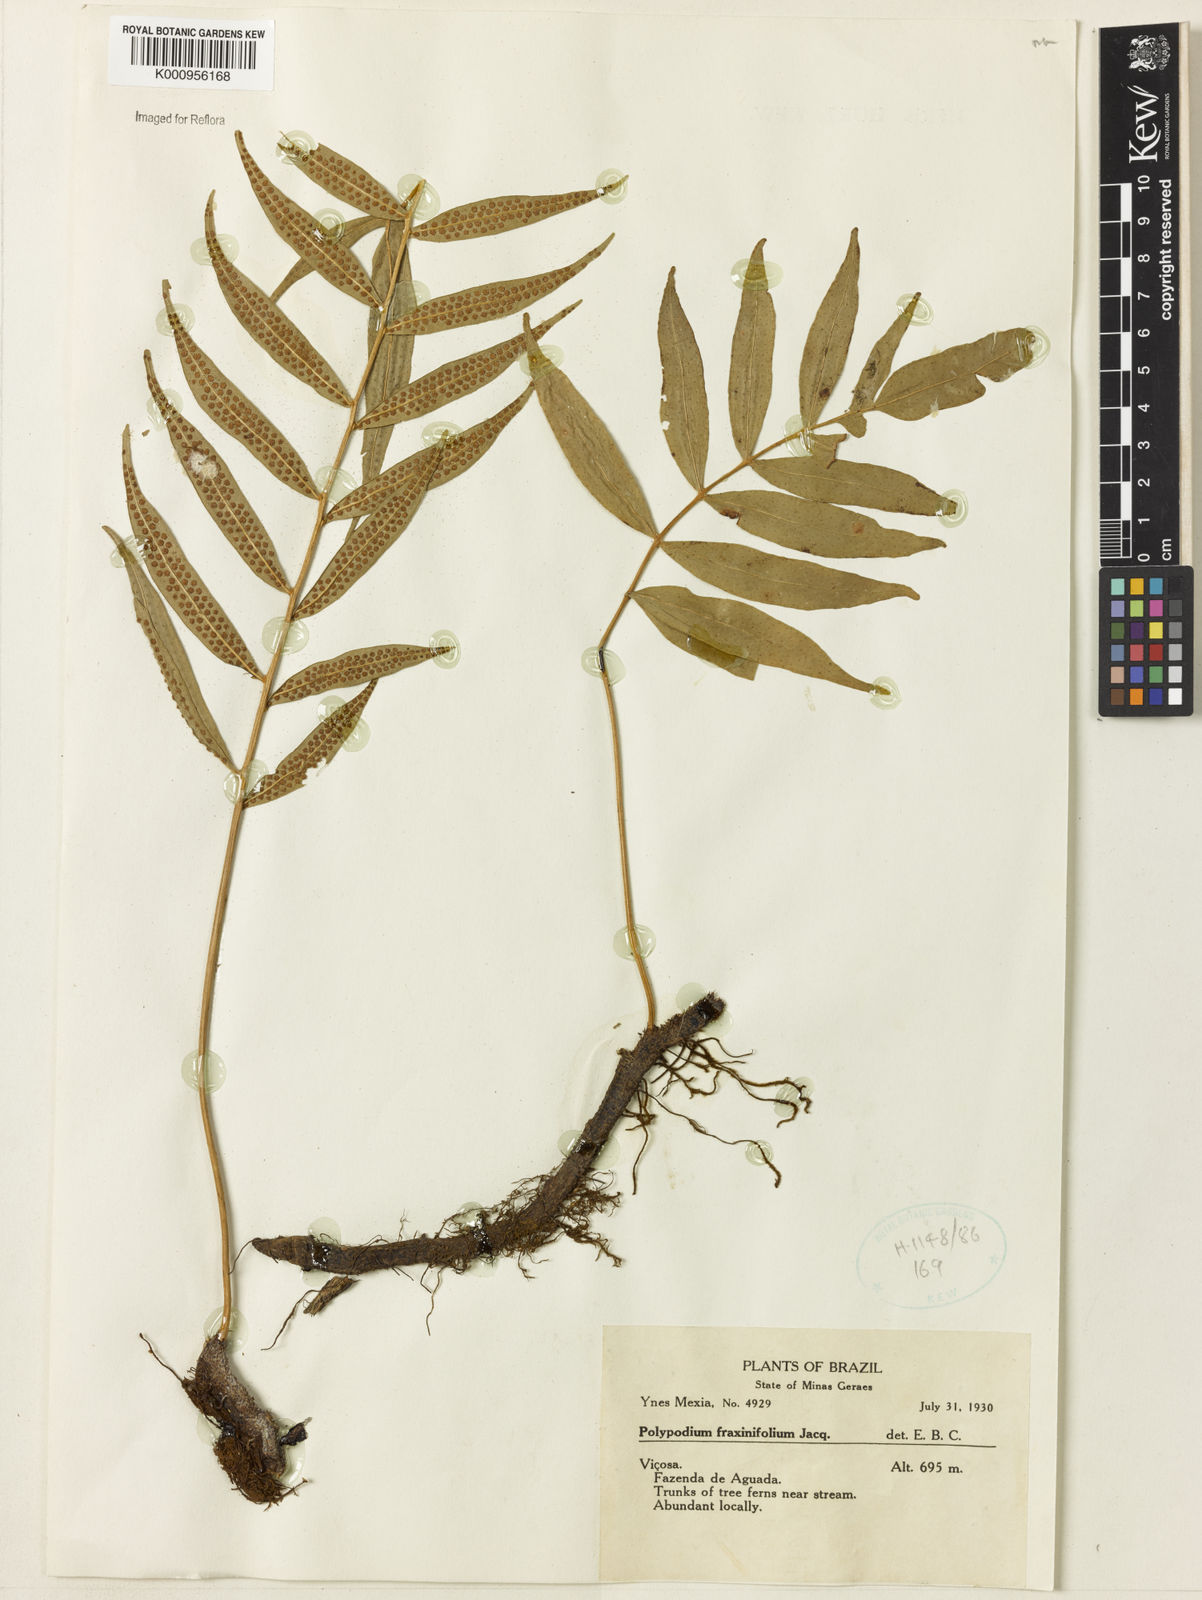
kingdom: Plantae
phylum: Tracheophyta
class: Polypodiopsida
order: Polypodiales
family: Polypodiaceae
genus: Serpocaulon
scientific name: Serpocaulon fraxinifolium
